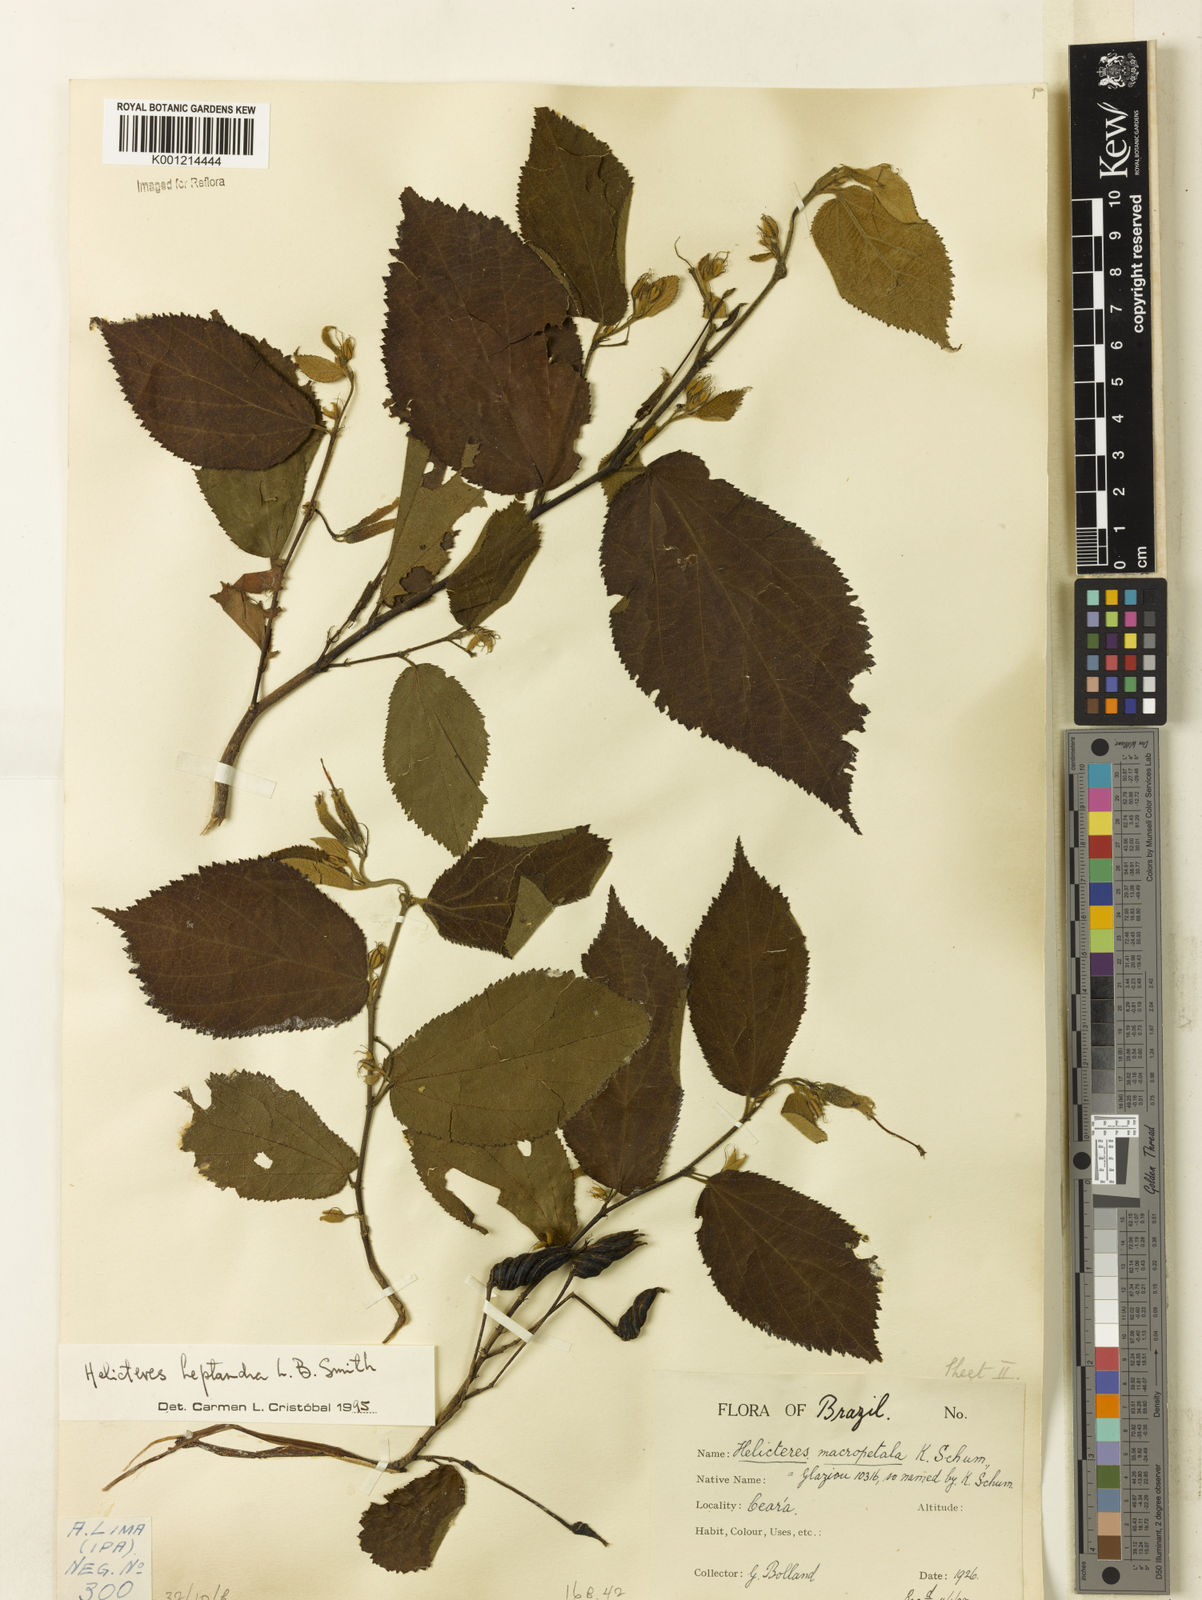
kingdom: Plantae
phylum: Tracheophyta
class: Magnoliopsida
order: Malvales
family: Malvaceae
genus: Helicteres
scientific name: Helicteres heptandra
